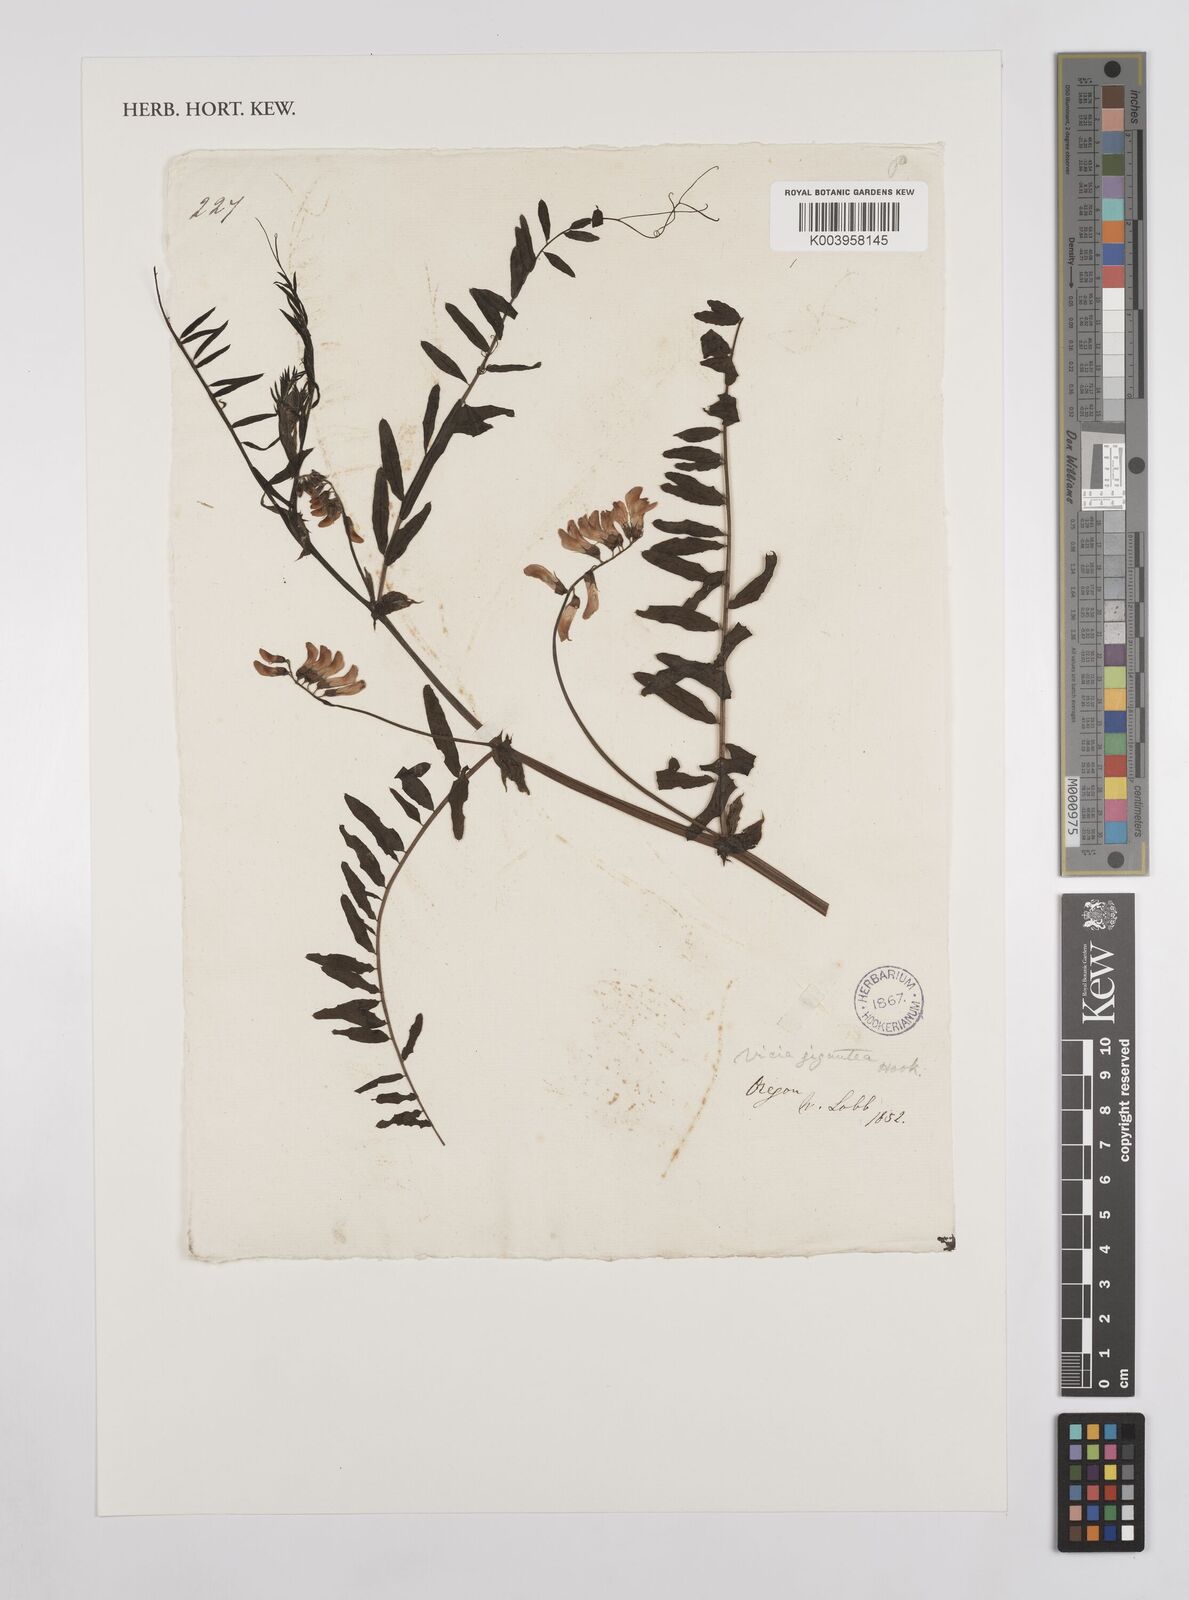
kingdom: Plantae
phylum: Tracheophyta
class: Magnoliopsida
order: Fabales
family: Fabaceae
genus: Vicia
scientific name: Vicia nigricans
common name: Black vetch
